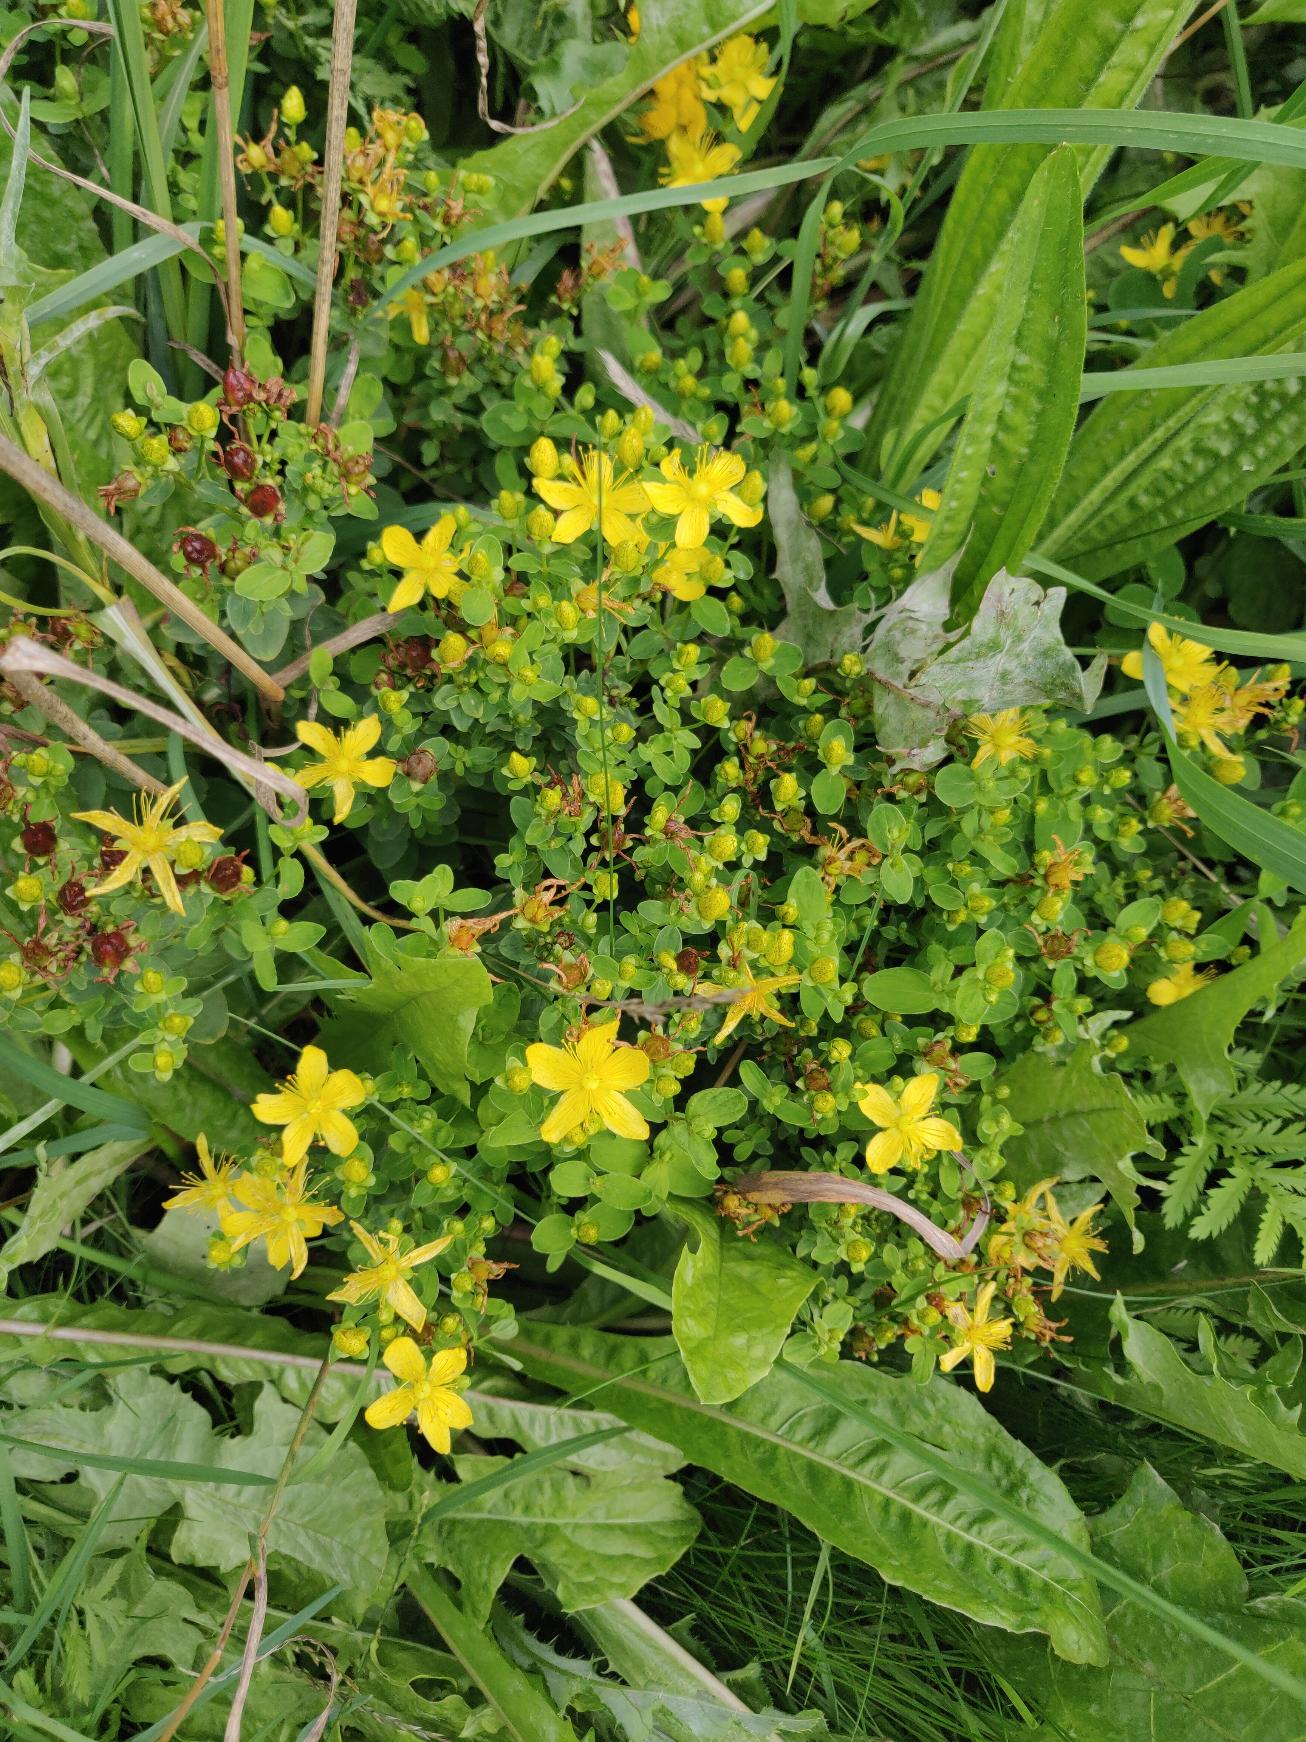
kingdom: Plantae
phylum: Tracheophyta
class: Magnoliopsida
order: Malpighiales
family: Hypericaceae
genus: Hypericum
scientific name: Hypericum maculatum
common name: Kantet perikon
